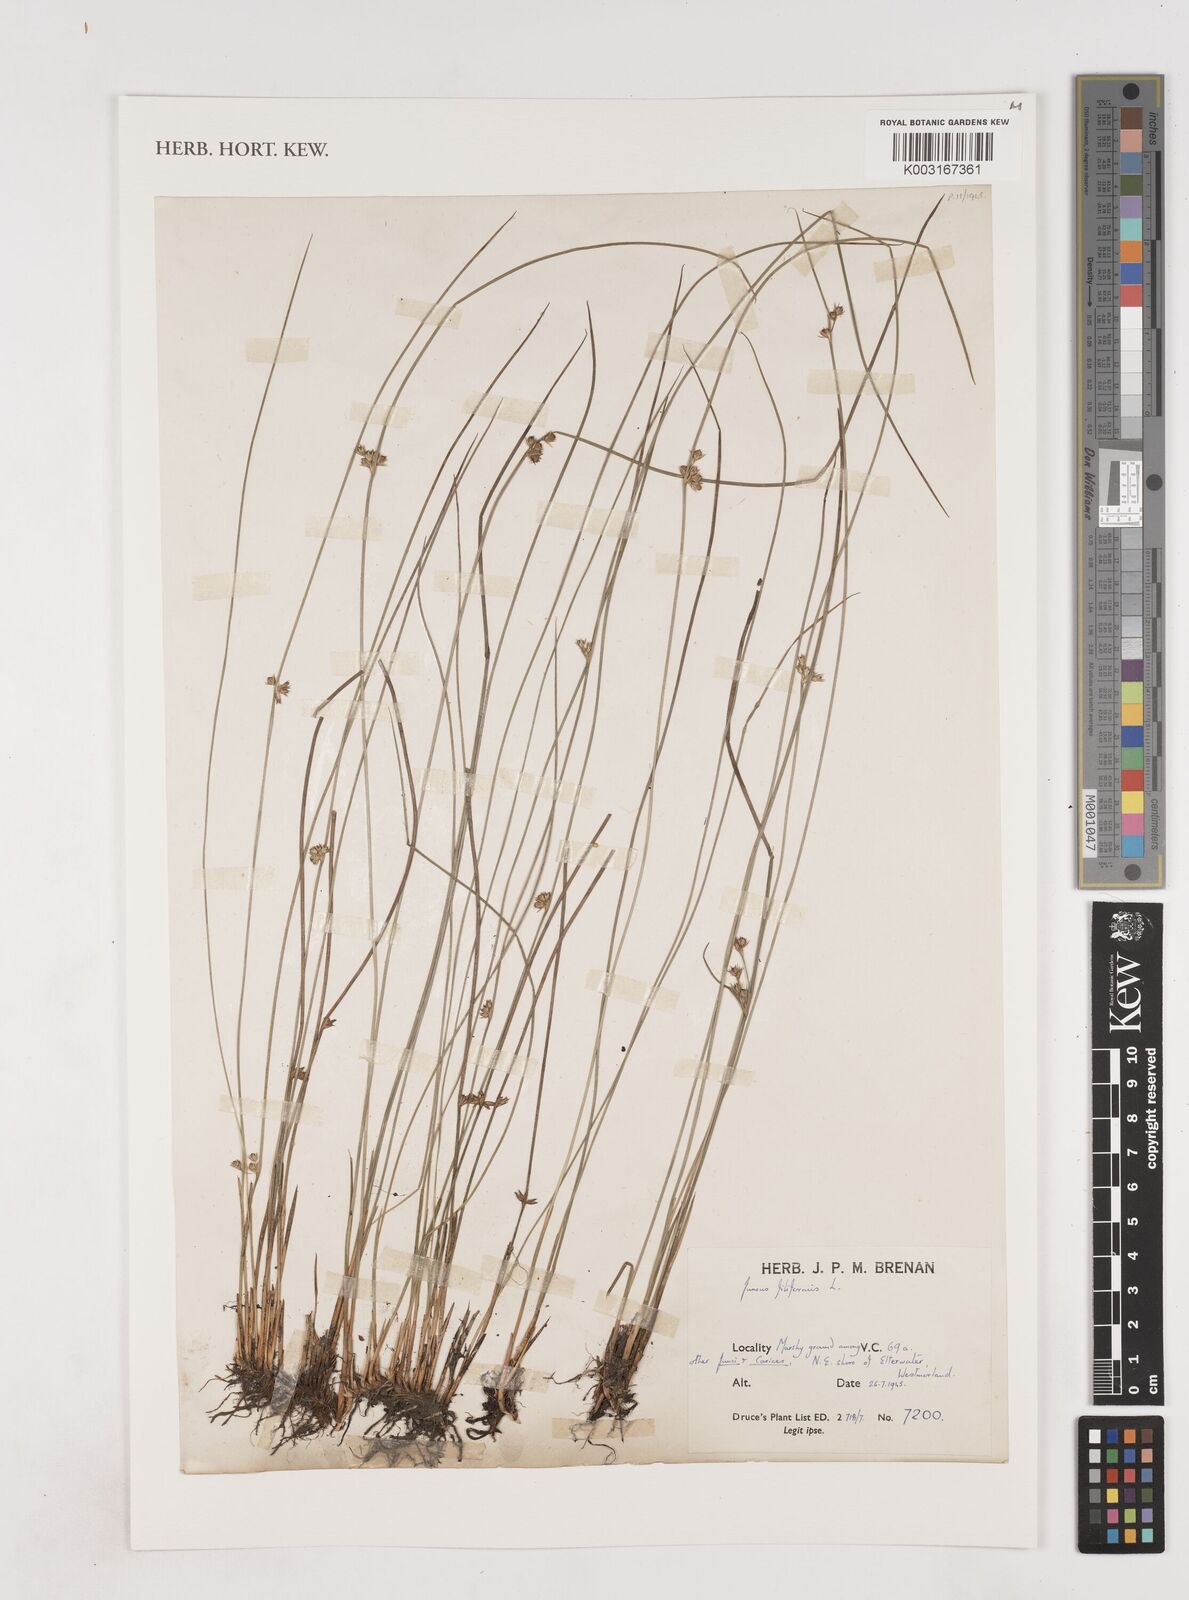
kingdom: Plantae
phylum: Tracheophyta
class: Liliopsida
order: Poales
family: Juncaceae
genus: Juncus
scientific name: Juncus filiformis
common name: Thread rush
